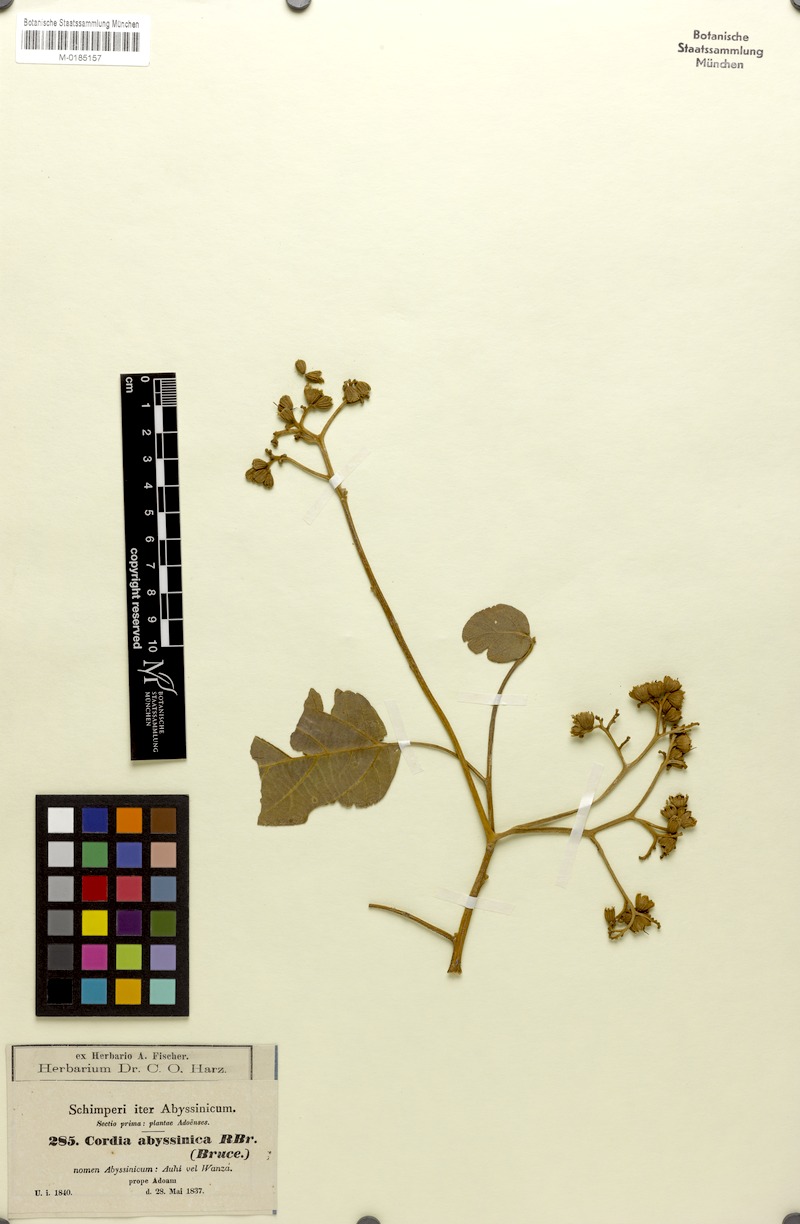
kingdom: Plantae
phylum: Tracheophyta
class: Magnoliopsida
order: Boraginales
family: Cordiaceae
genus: Cordia
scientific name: Cordia africana
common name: Large-leaved cordia
